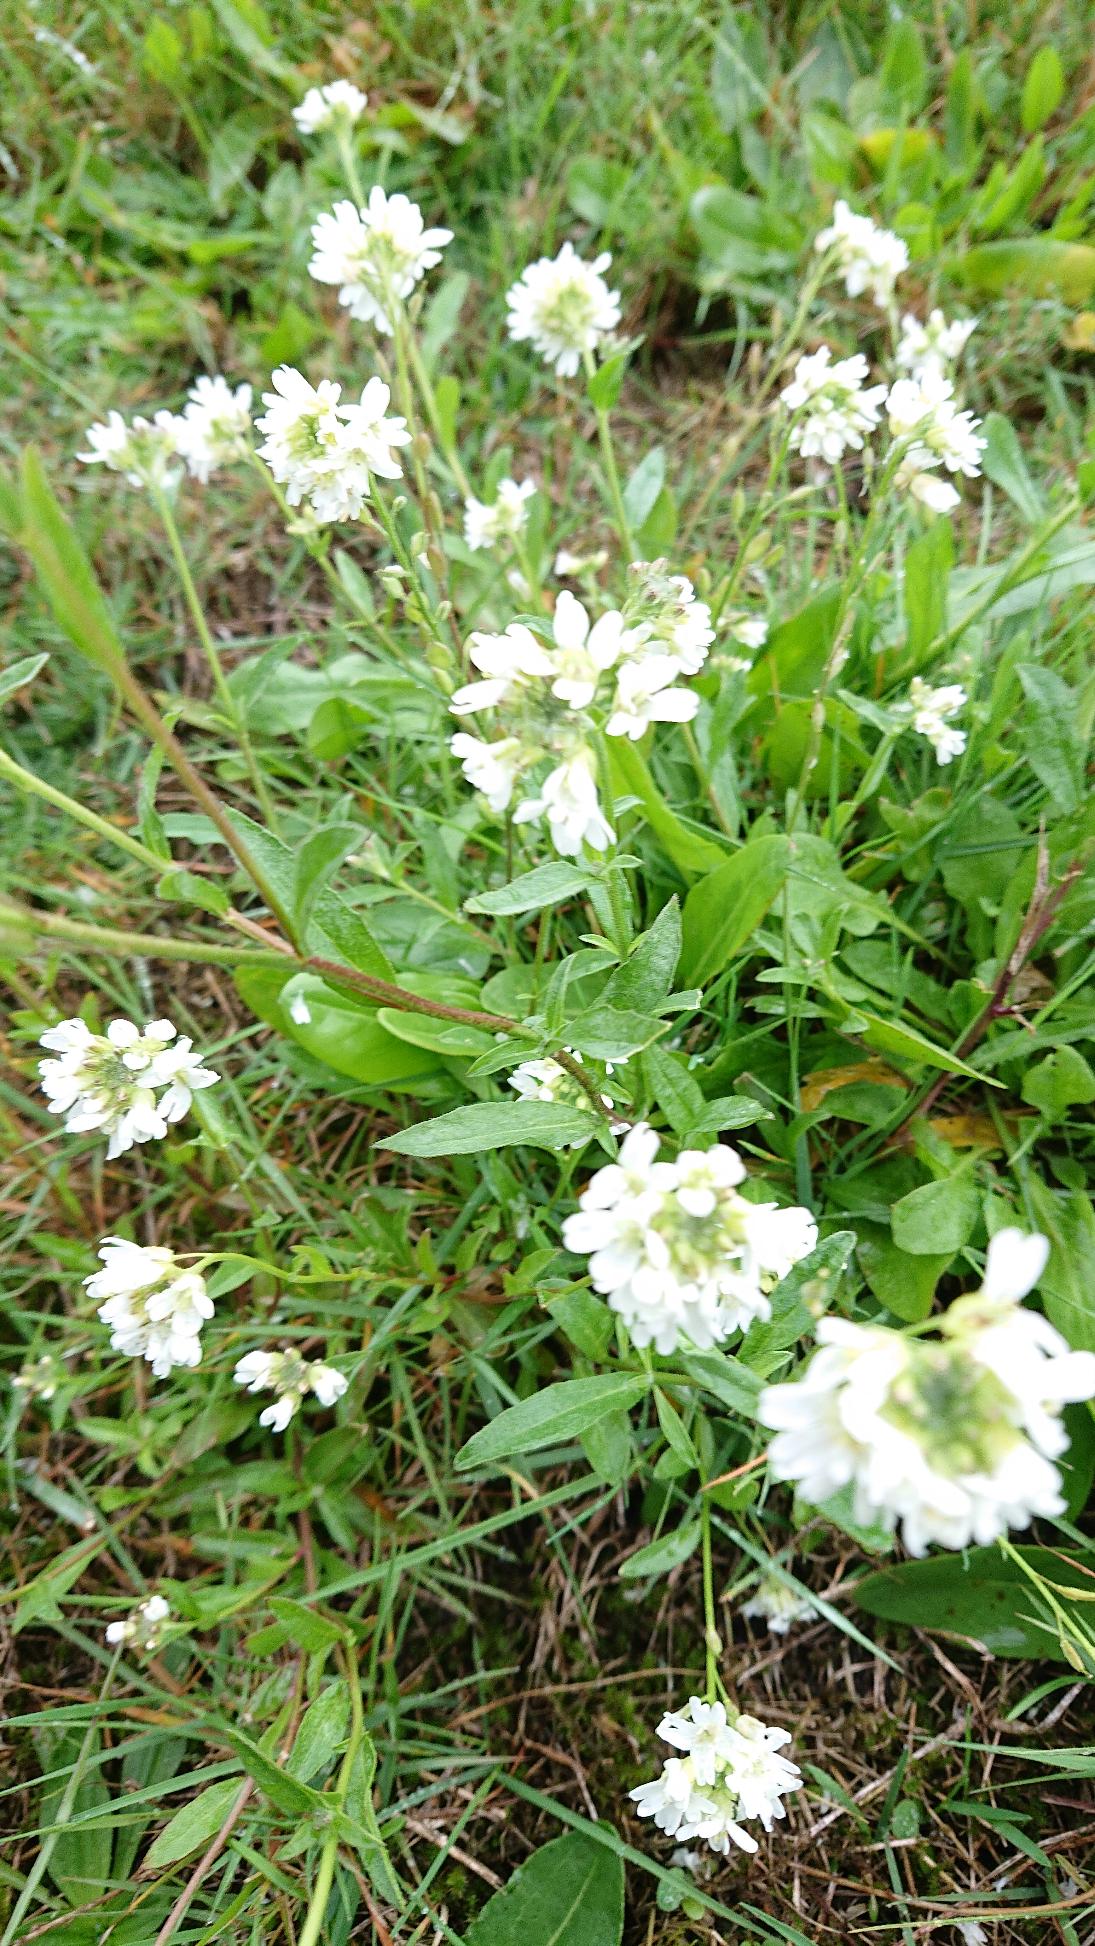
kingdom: Plantae
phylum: Tracheophyta
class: Magnoliopsida
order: Brassicales
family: Brassicaceae
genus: Berteroa
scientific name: Berteroa incana
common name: Kløvplade
